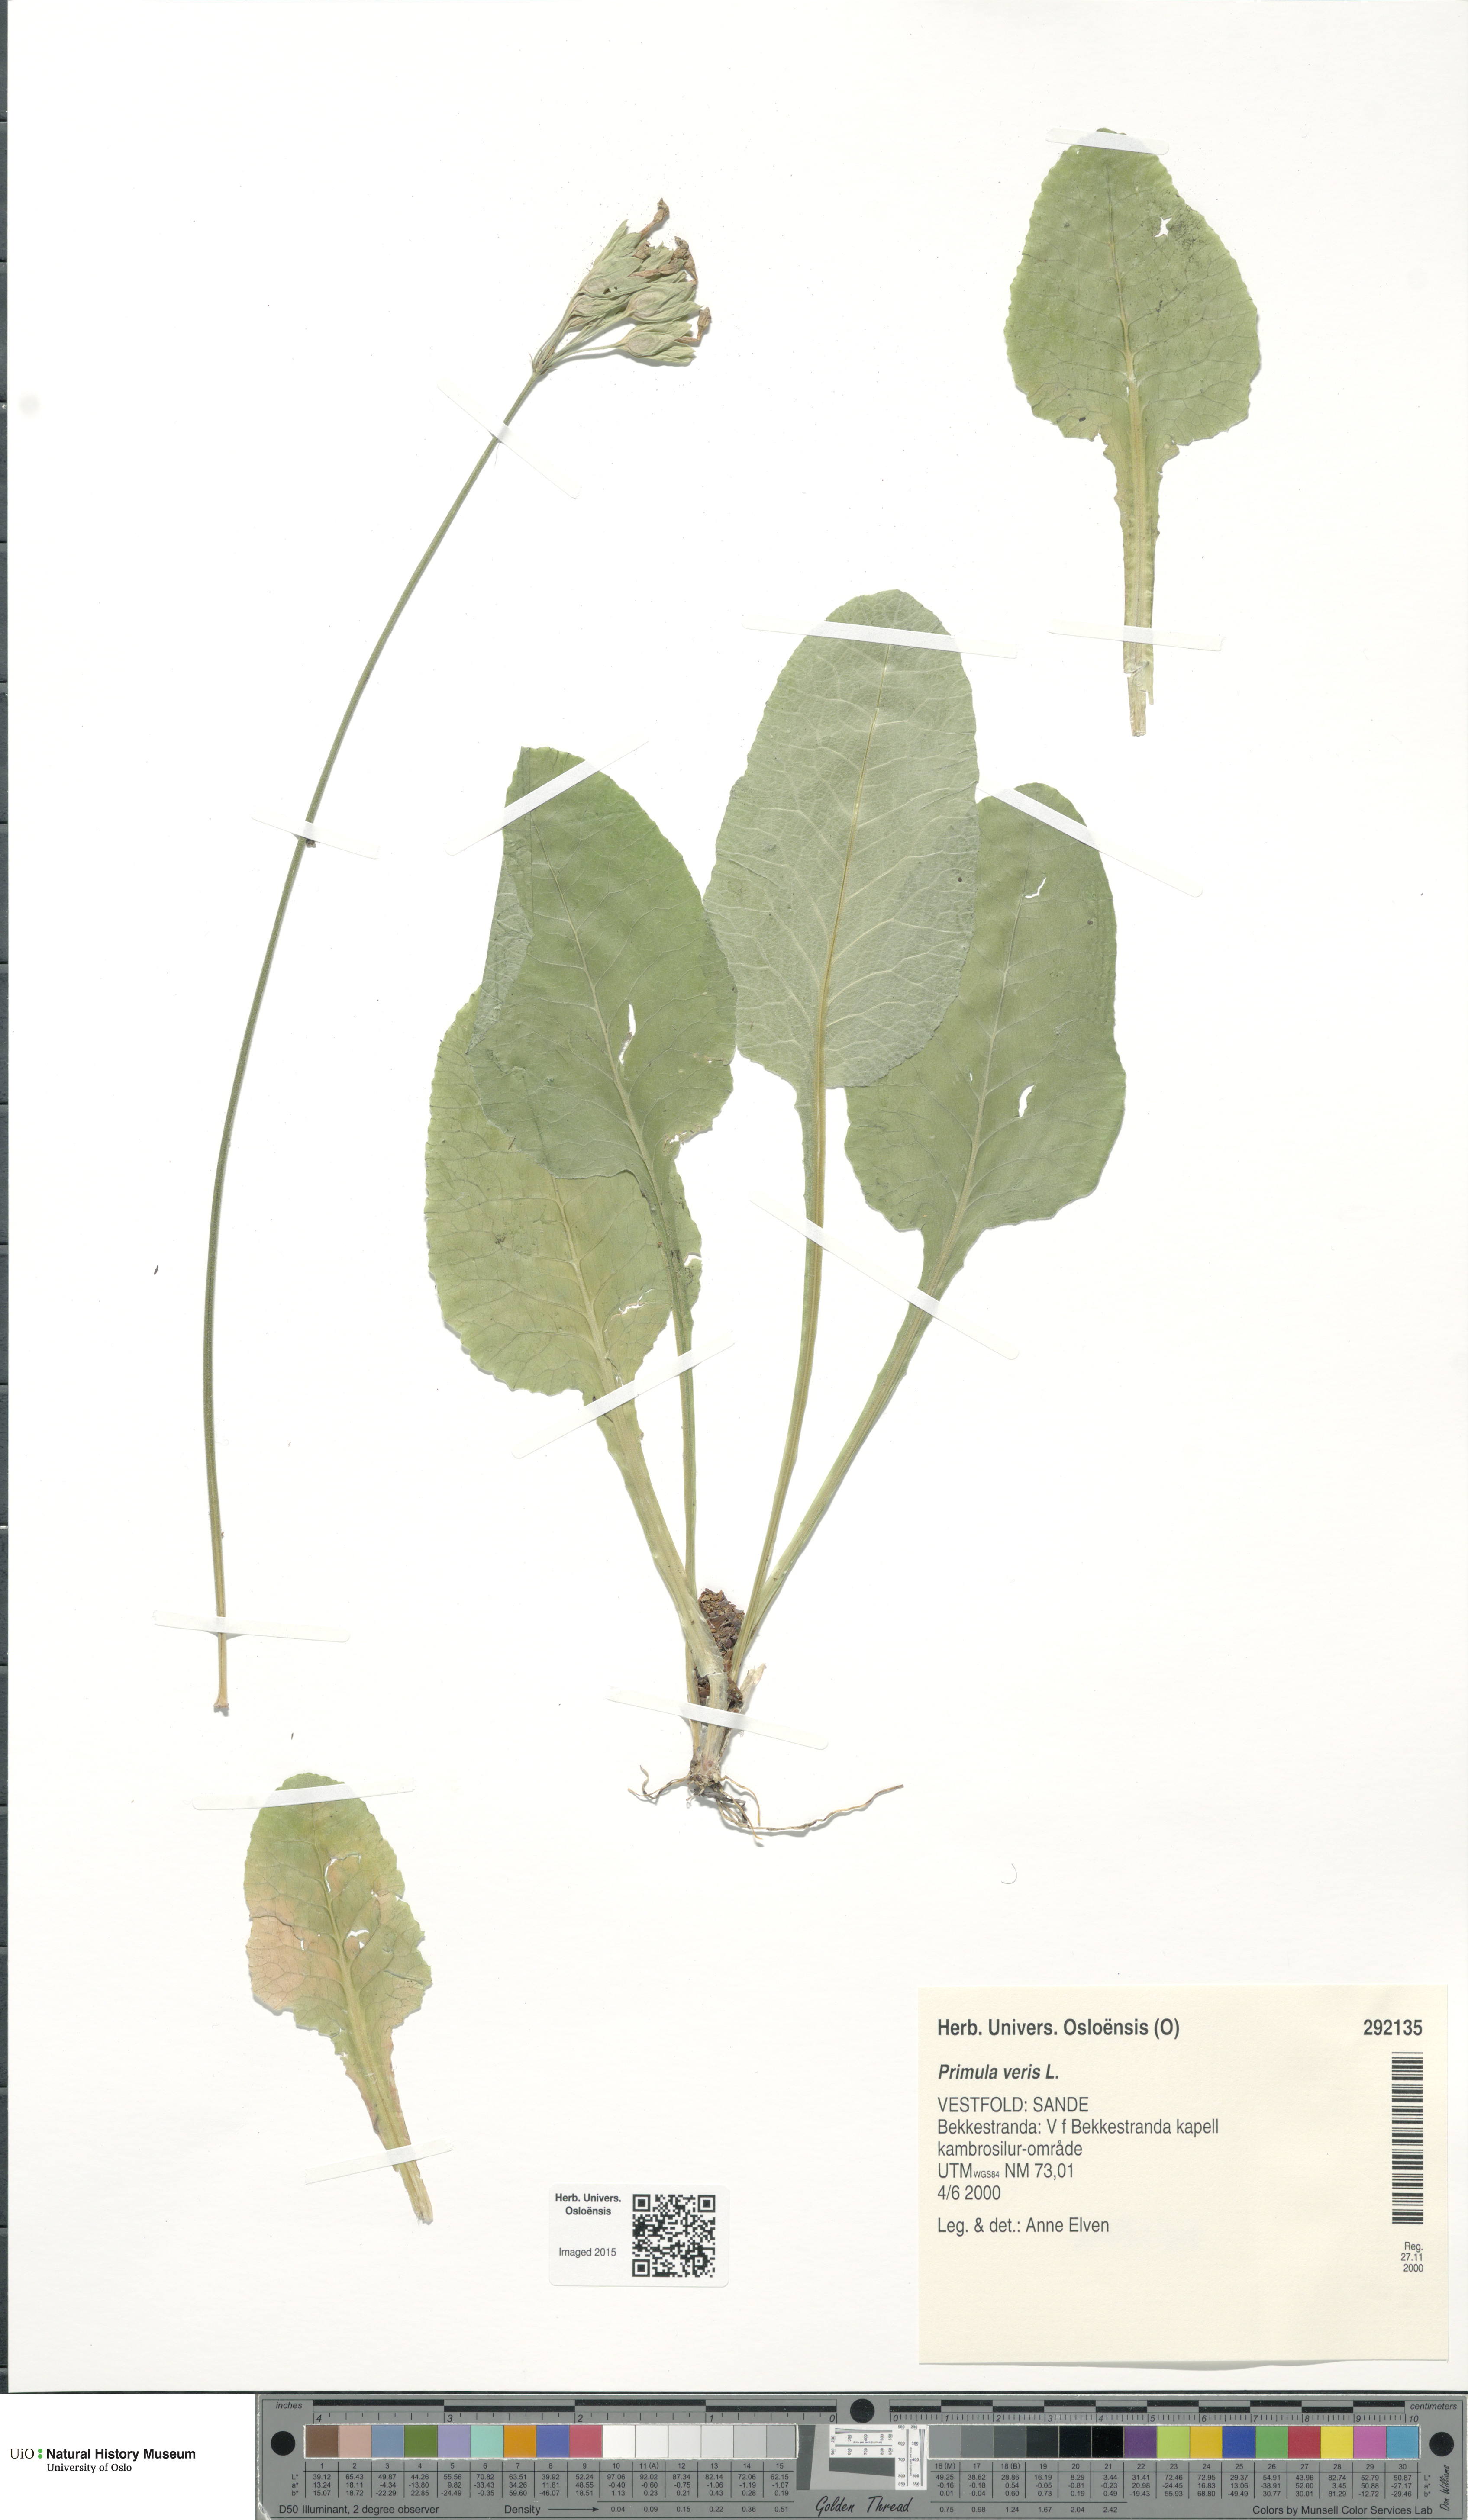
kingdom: Plantae
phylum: Tracheophyta
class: Magnoliopsida
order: Ericales
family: Primulaceae
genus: Primula
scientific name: Primula veris
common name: Cowslip
